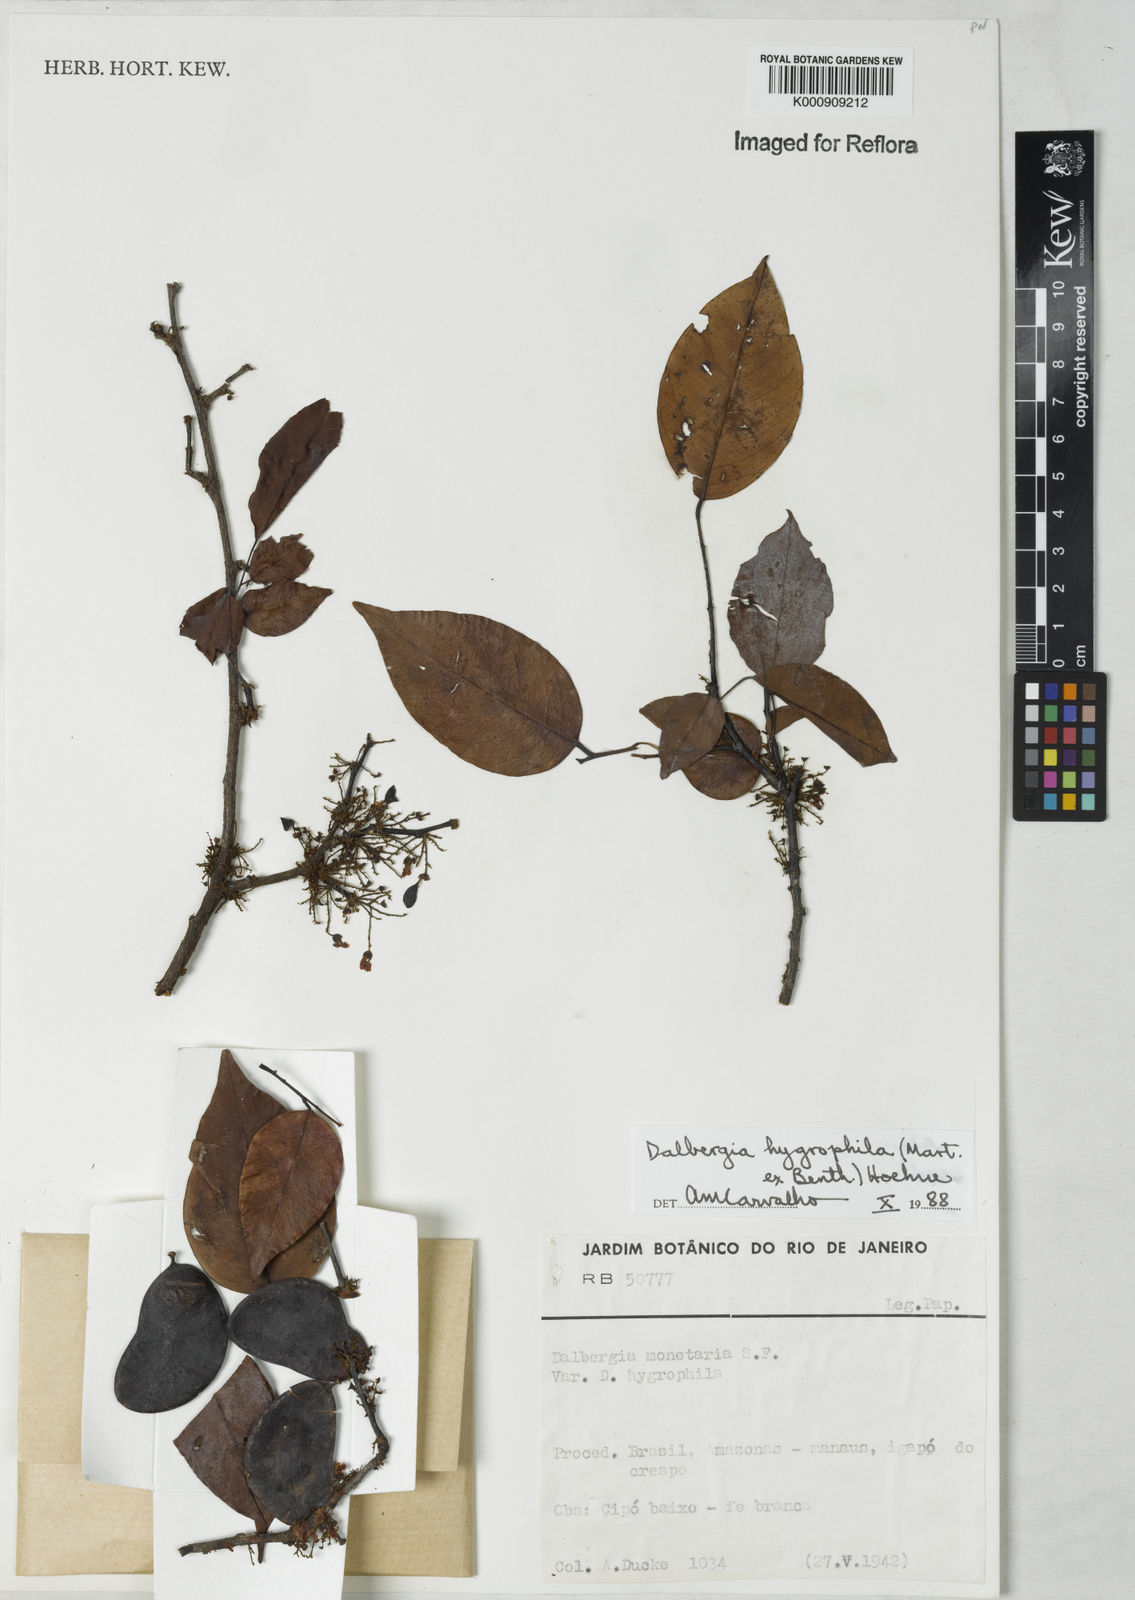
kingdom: Plantae
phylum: Tracheophyta
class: Magnoliopsida
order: Fabales
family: Fabaceae
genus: Dalbergia
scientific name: Dalbergia hygrophila
